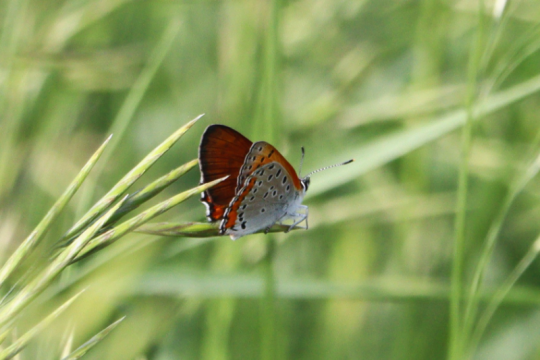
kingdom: Animalia
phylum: Arthropoda
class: Insecta
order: Lepidoptera
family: Sesiidae
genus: Sesia
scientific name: Sesia Lycaena hyllus
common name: Bronze Copper
